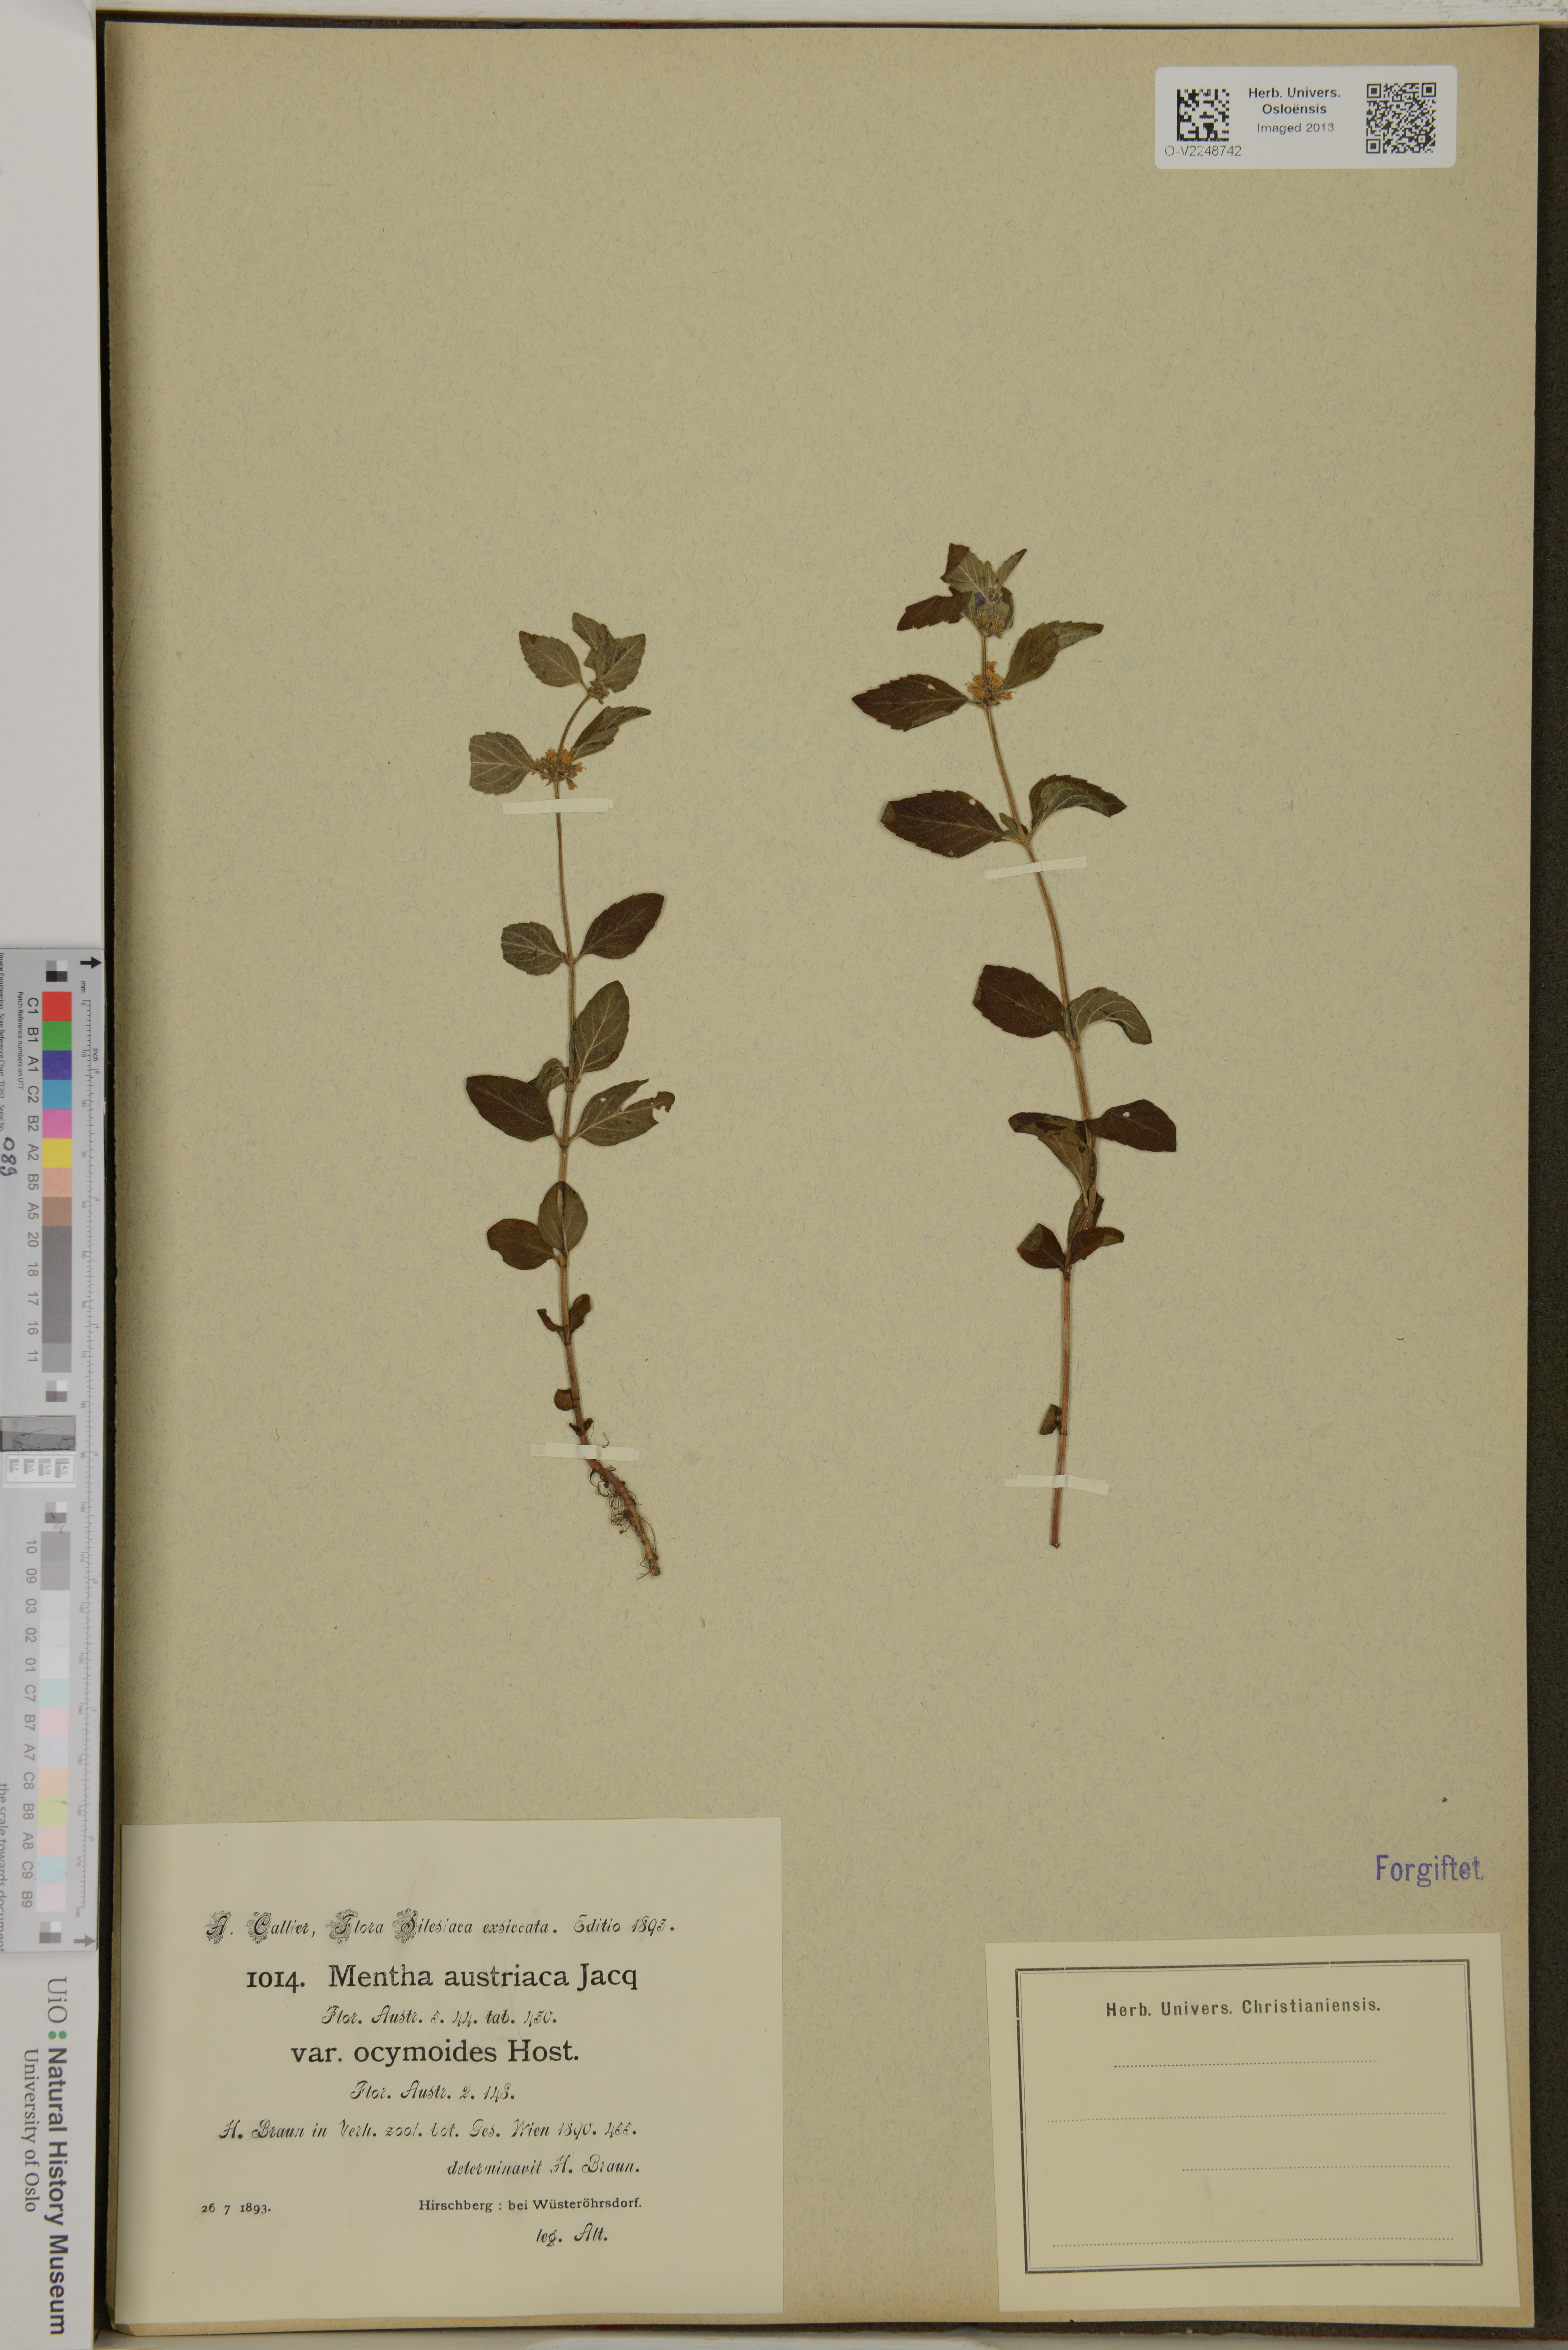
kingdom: Plantae
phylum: Tracheophyta
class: Magnoliopsida
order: Lamiales
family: Lamiaceae
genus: Mentha
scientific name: Mentha arvensis
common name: Corn mint
